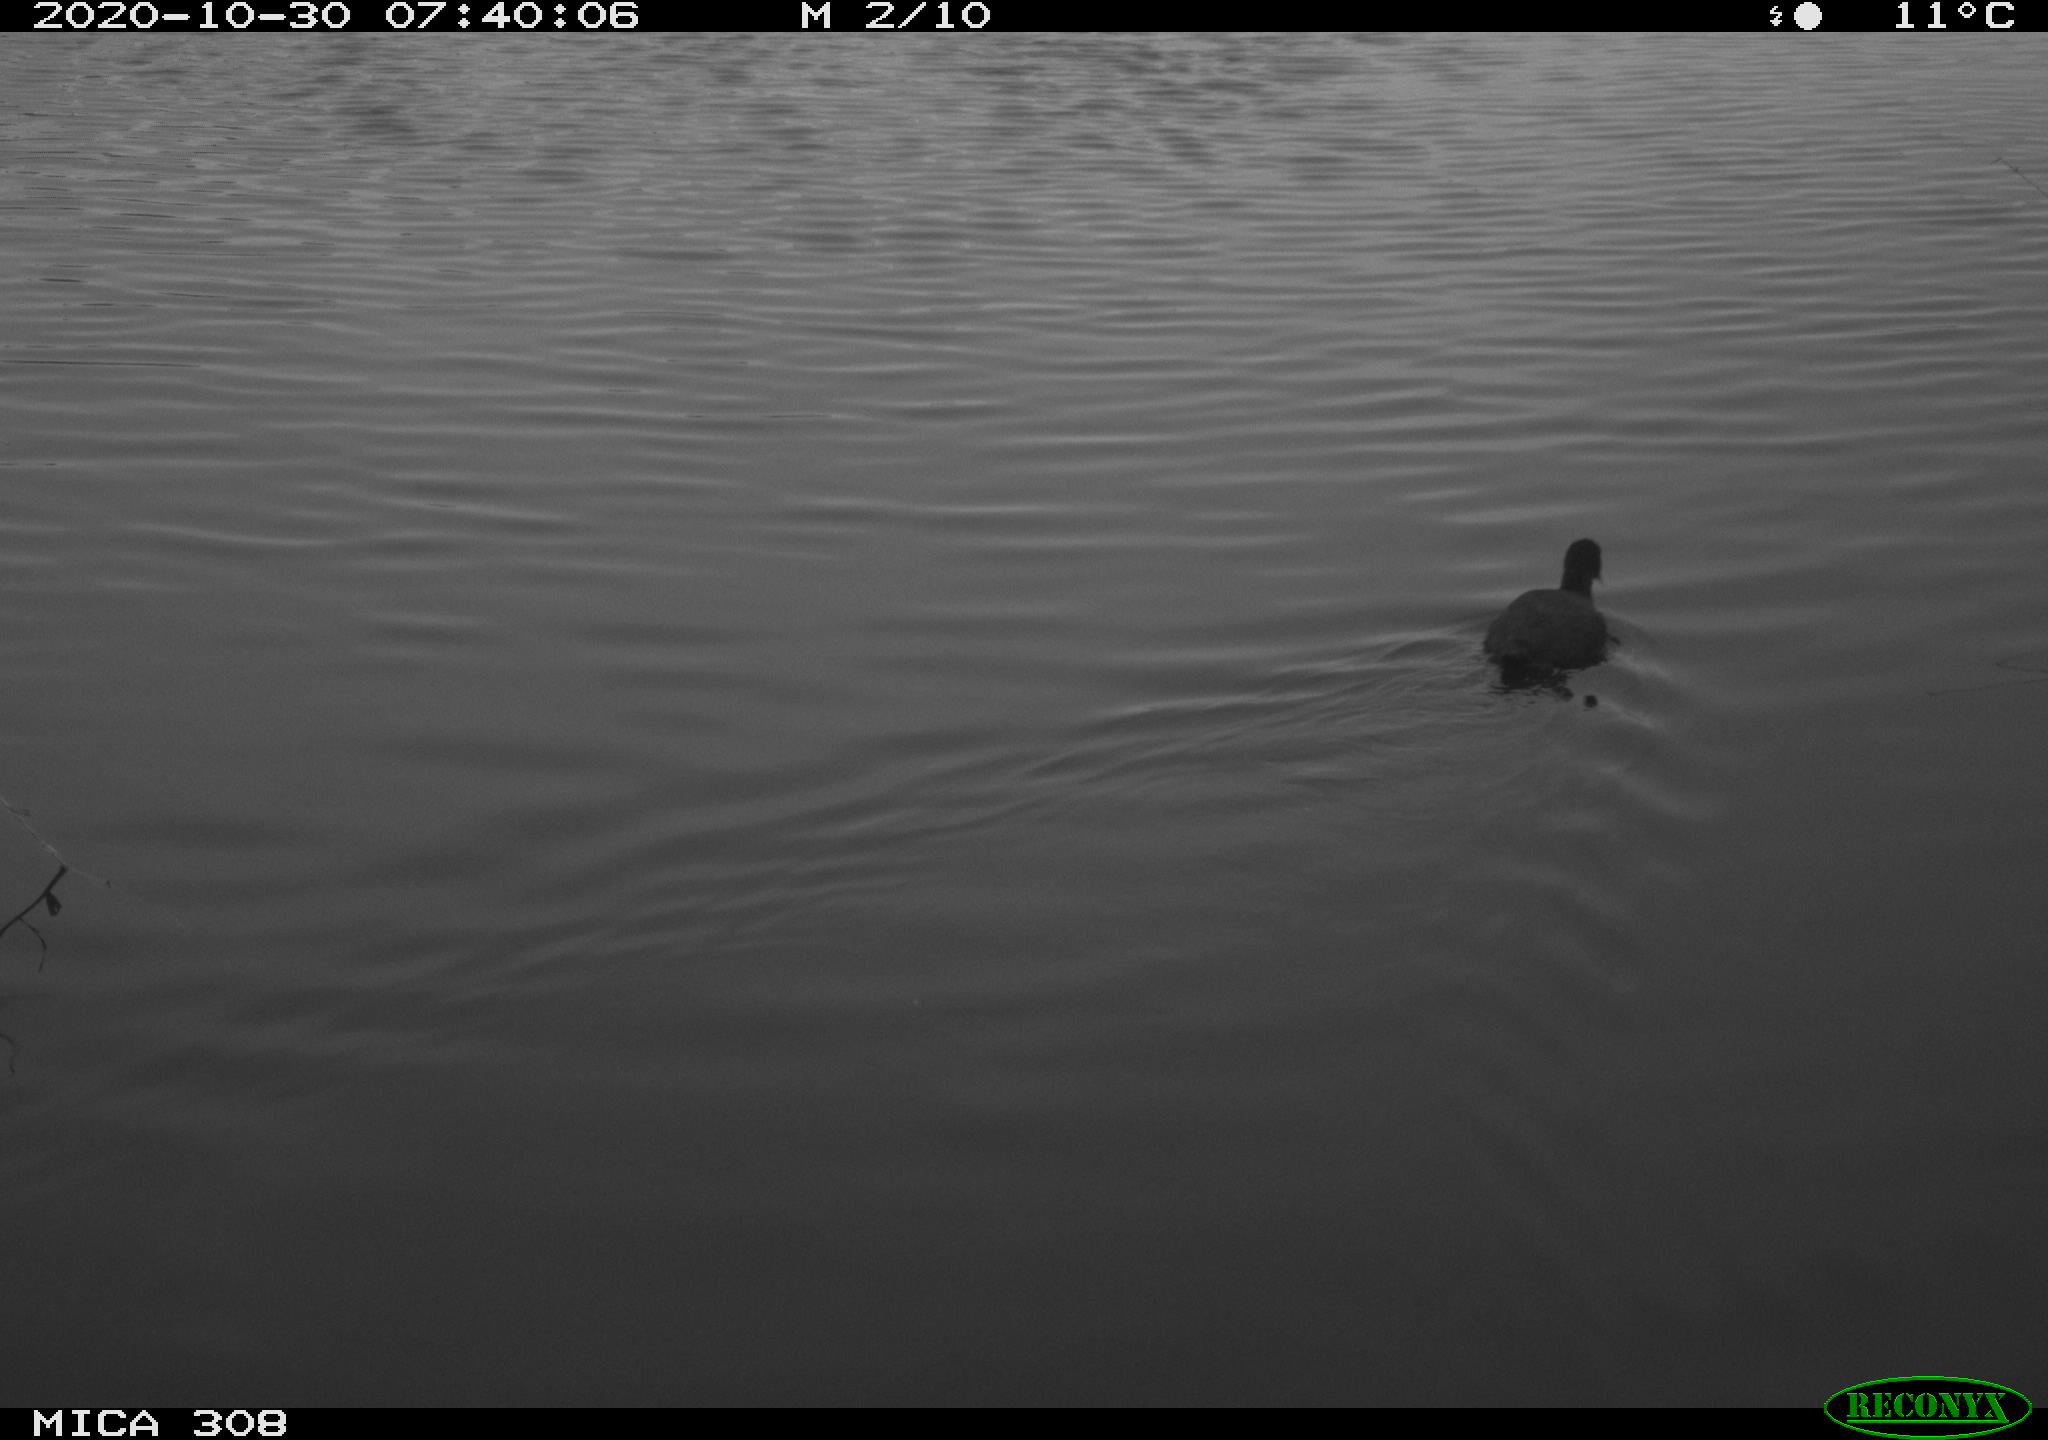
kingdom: Animalia
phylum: Chordata
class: Aves
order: Gruiformes
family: Rallidae
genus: Fulica
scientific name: Fulica atra
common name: Eurasian coot
